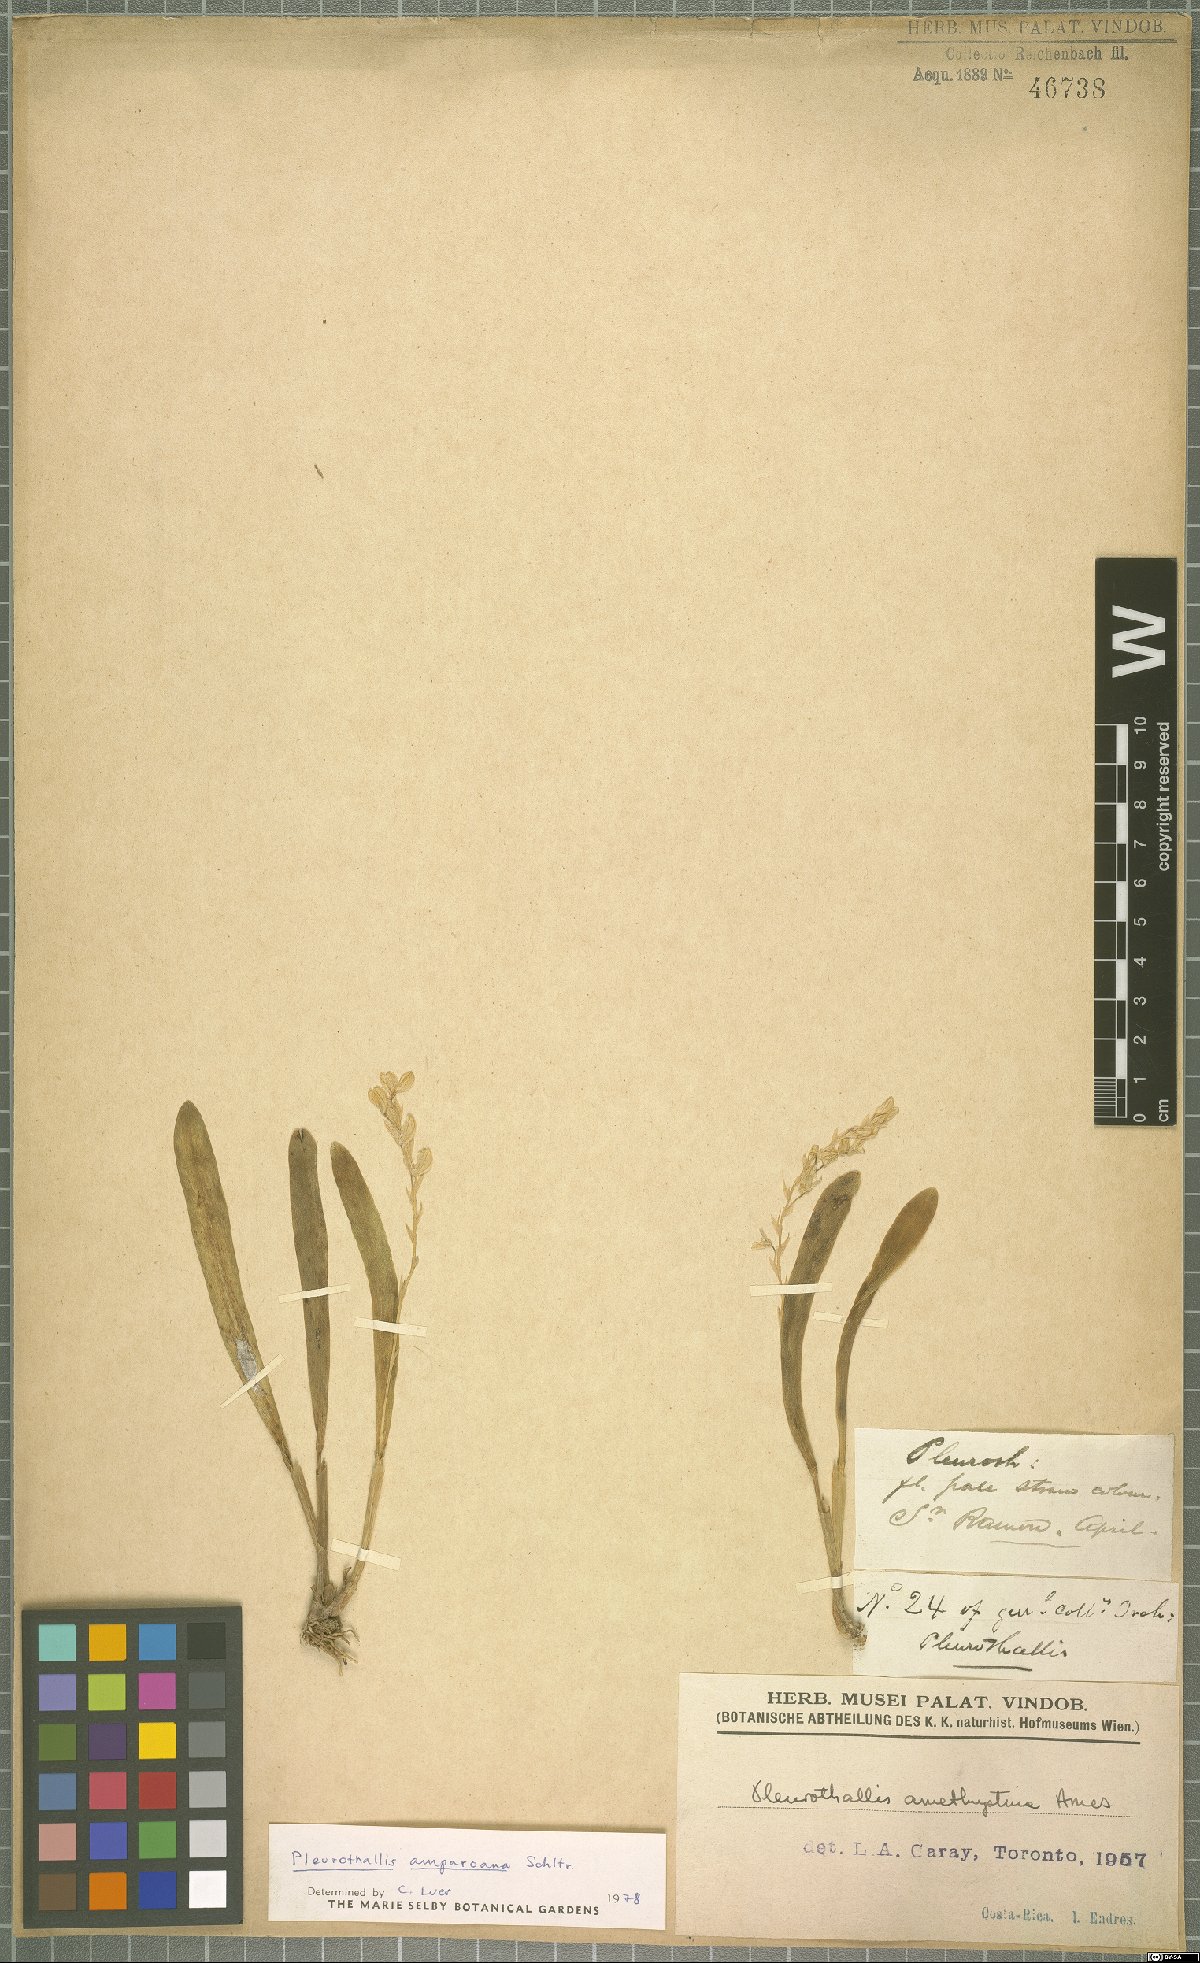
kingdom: Plantae
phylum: Tracheophyta
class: Liliopsida
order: Asparagales
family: Orchidaceae
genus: Stelis
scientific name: Stelis pilosa
